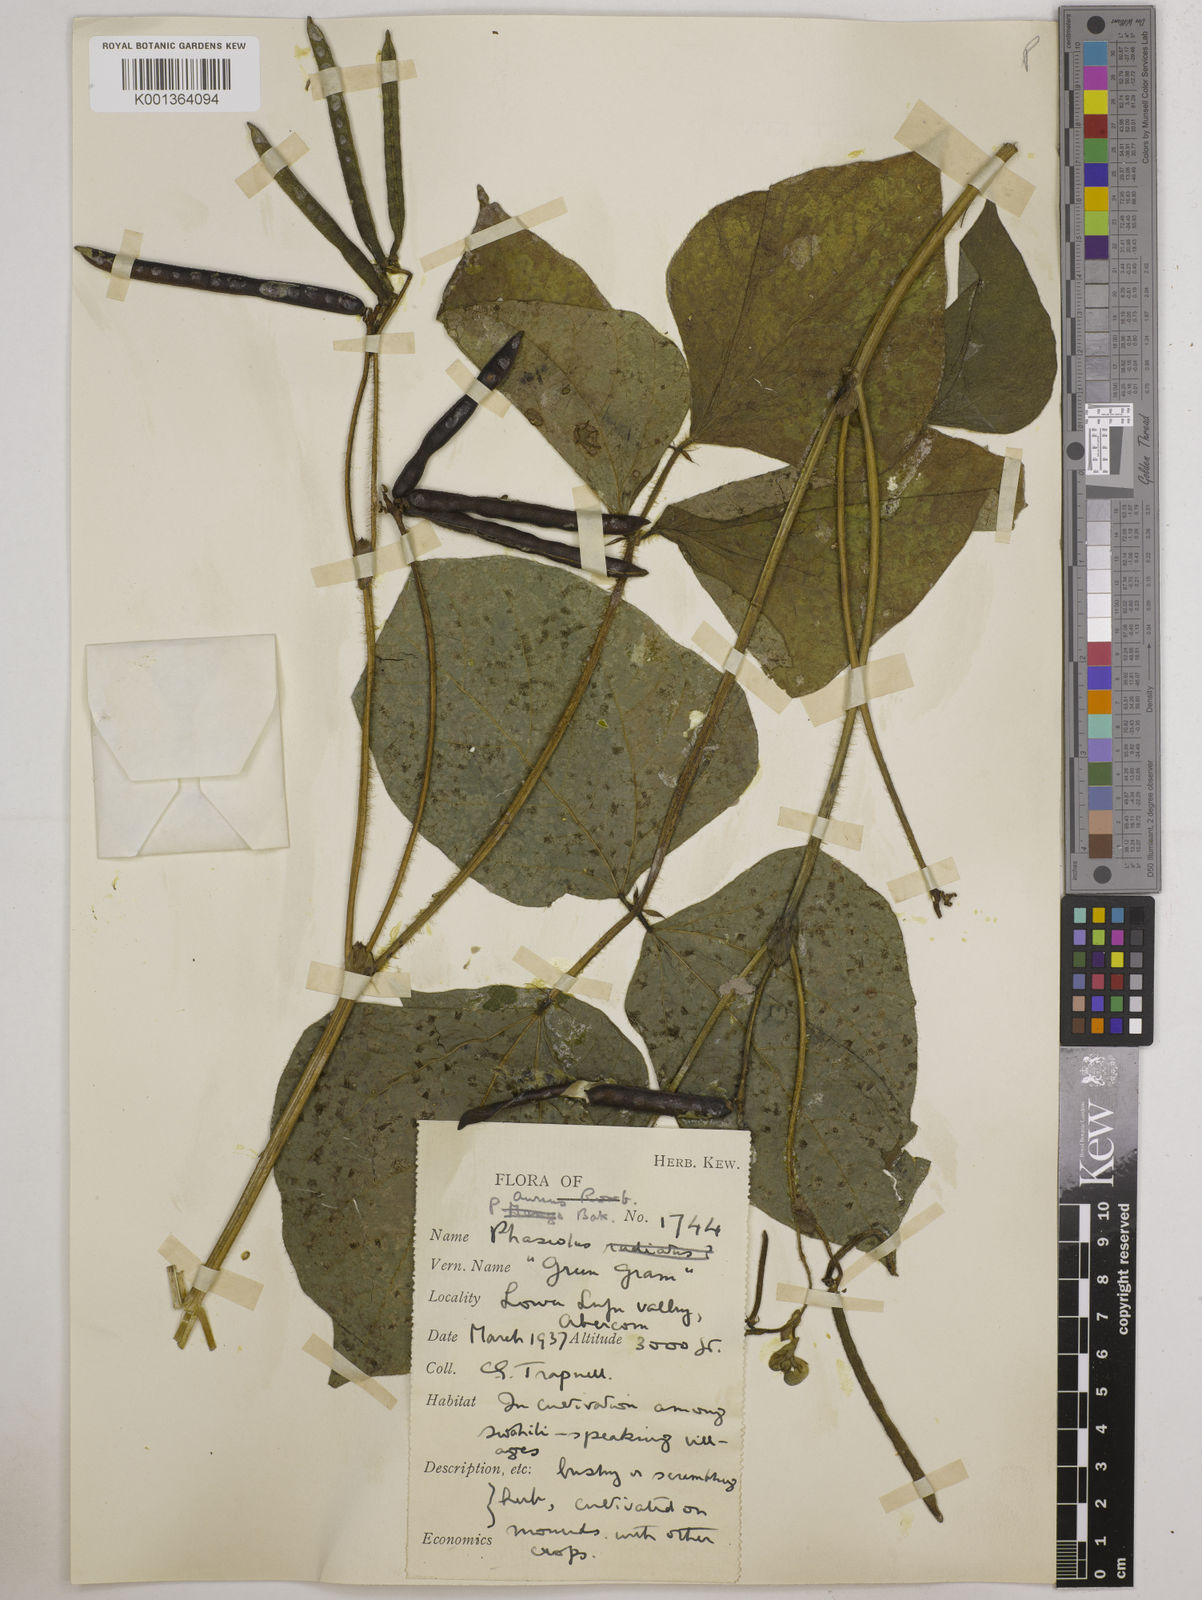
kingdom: Plantae
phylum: Tracheophyta
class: Magnoliopsida
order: Fabales
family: Fabaceae
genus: Vigna
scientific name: Vigna radiata
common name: Mung-bean
